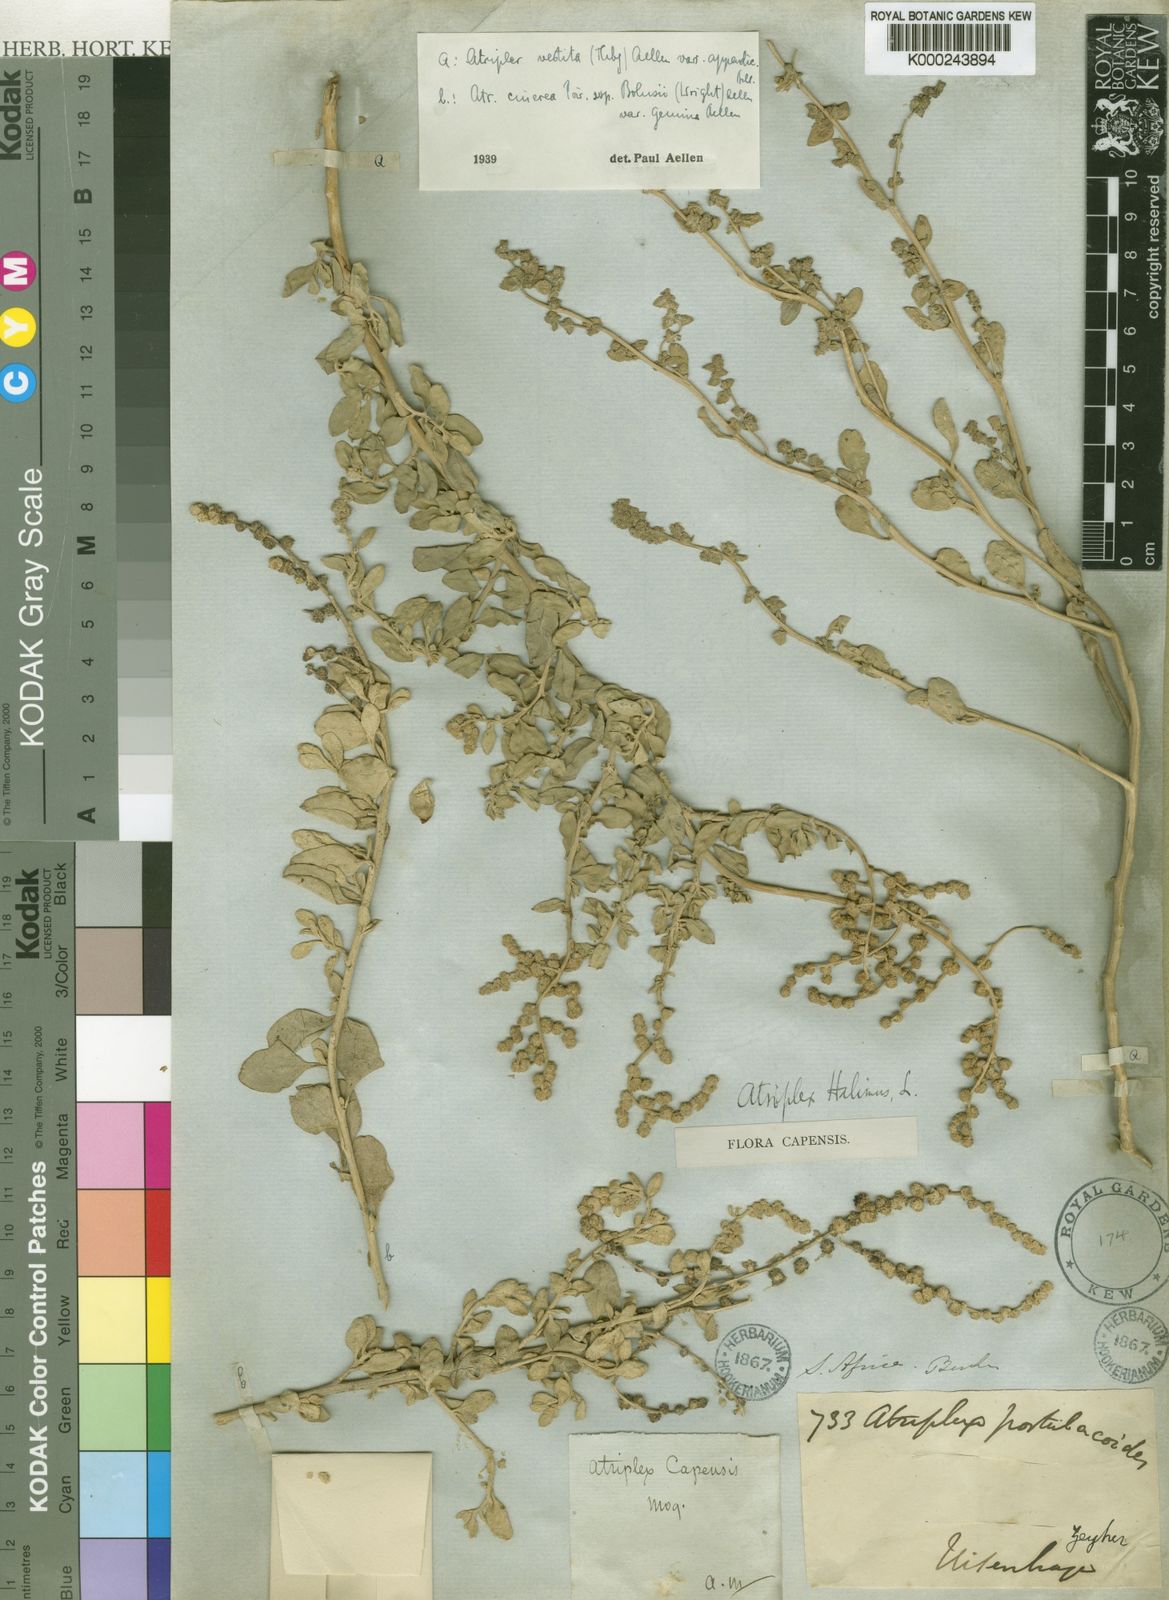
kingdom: Plantae
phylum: Tracheophyta
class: Magnoliopsida
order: Caryophyllales
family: Amaranthaceae
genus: Atriplex
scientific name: Atriplex vestita
